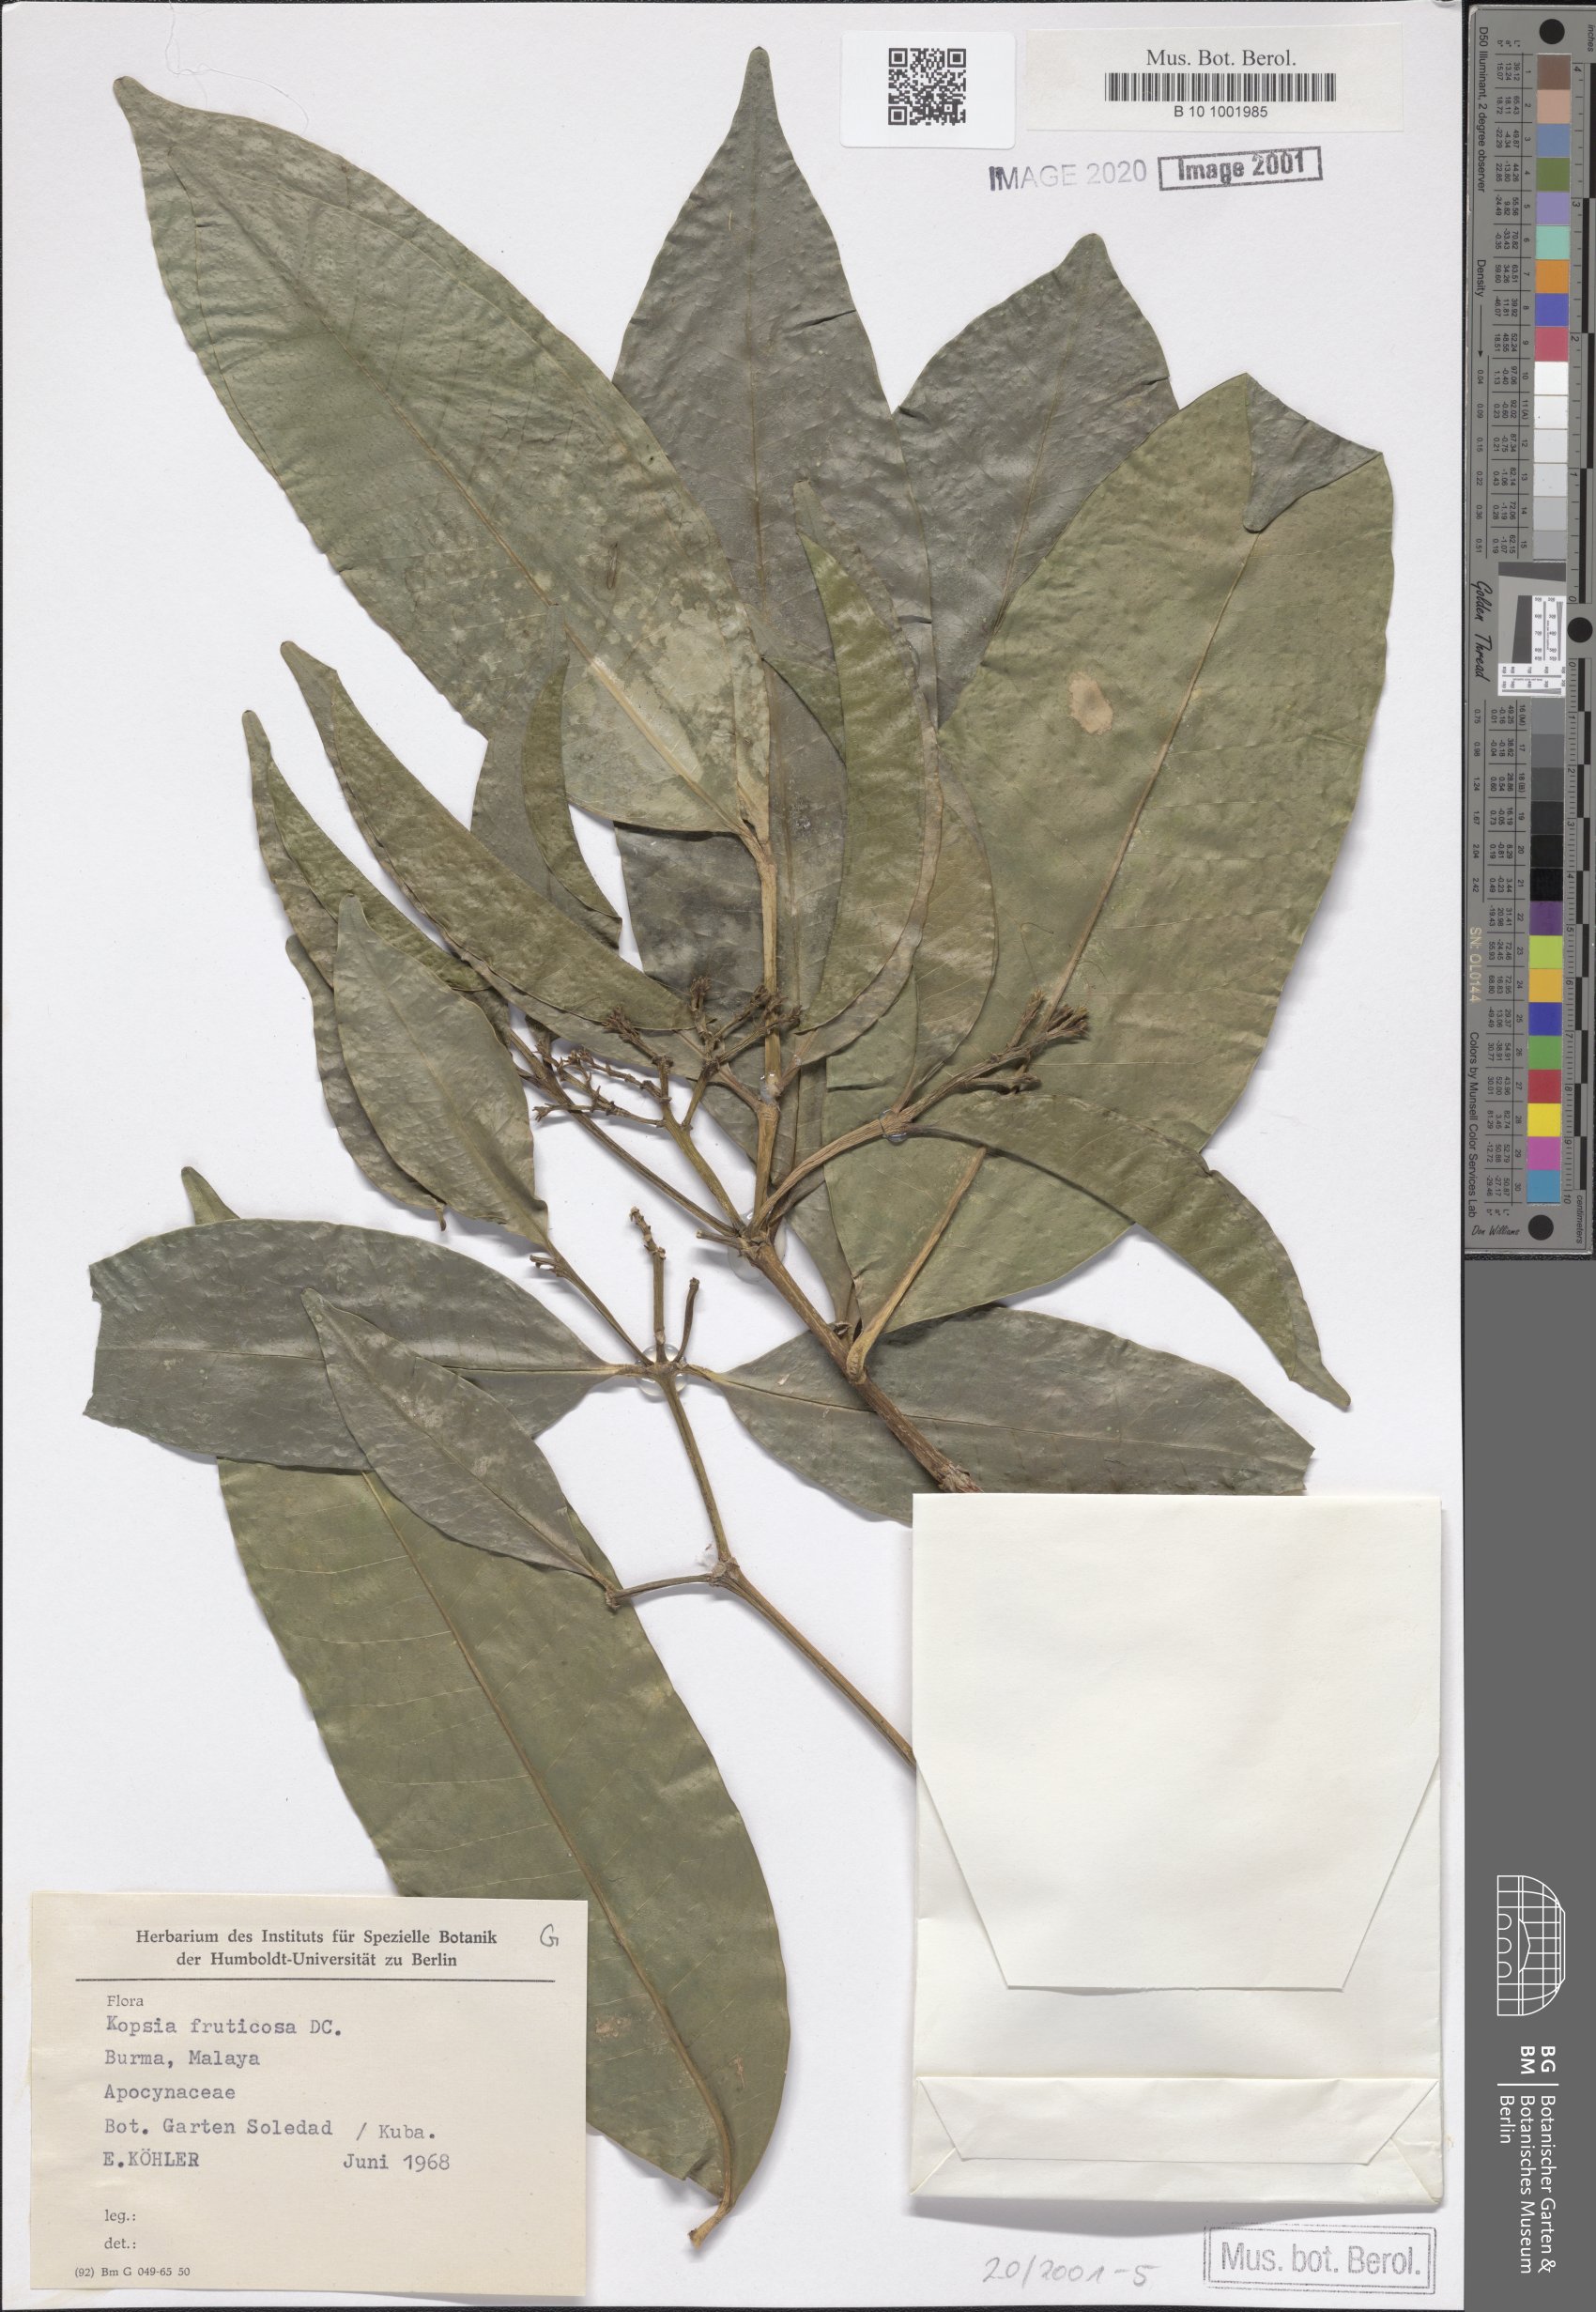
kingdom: Plantae
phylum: Tracheophyta
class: Magnoliopsida
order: Gentianales
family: Apocynaceae
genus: Kopsia
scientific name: Kopsia fruticosa
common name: Shrub-vinca
